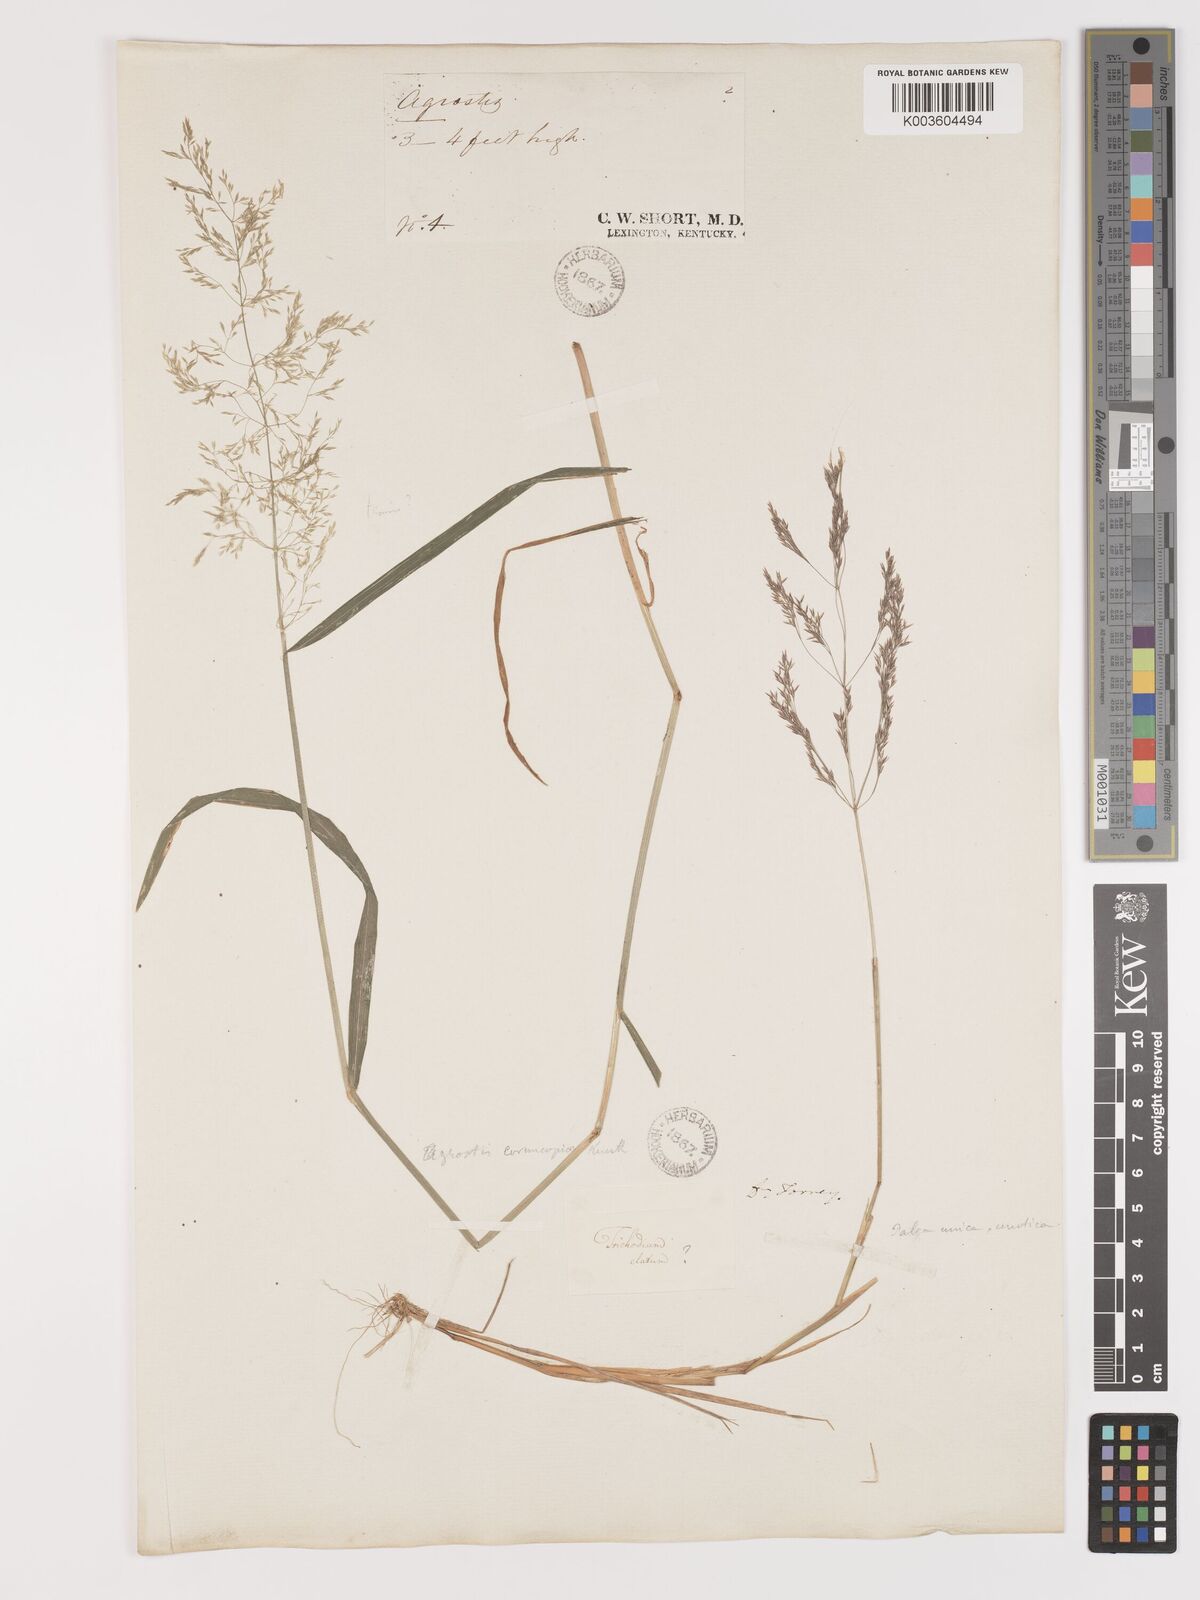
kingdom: Plantae
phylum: Tracheophyta
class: Liliopsida
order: Poales
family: Poaceae
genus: Agrostis
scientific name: Agrostis hyemalis
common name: Small bent
